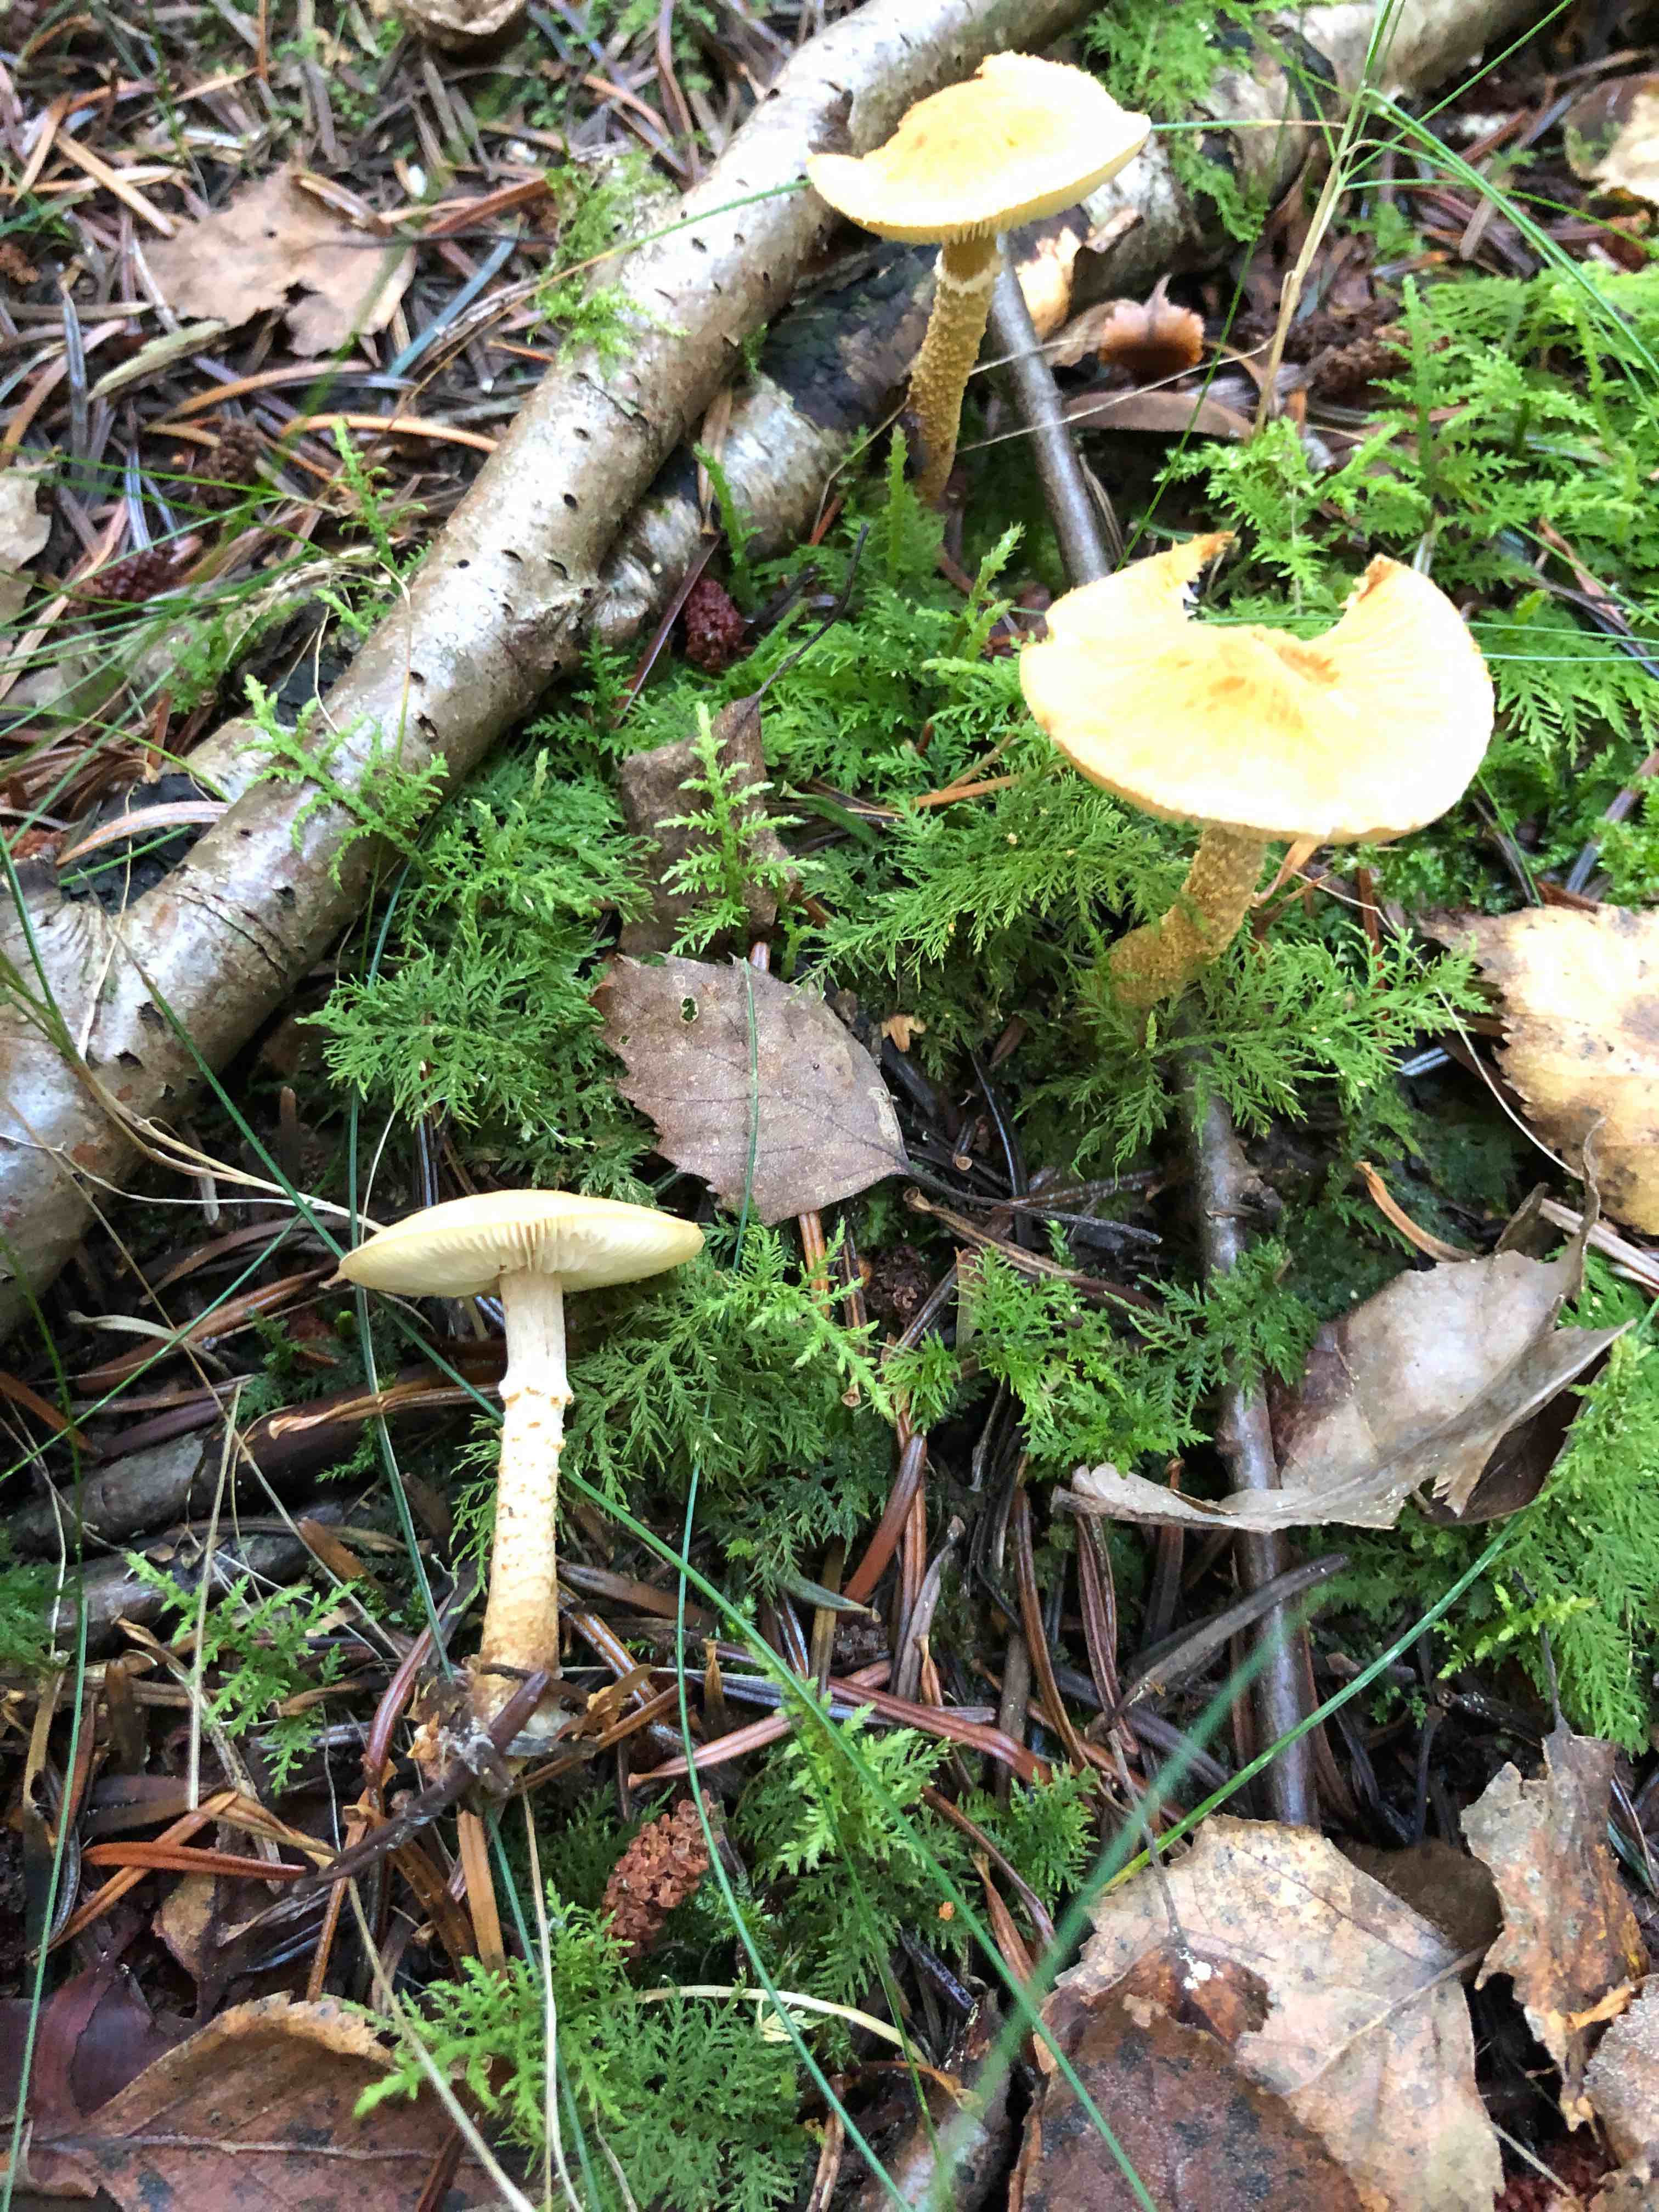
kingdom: Fungi
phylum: Basidiomycota
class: Agaricomycetes
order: Agaricales
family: Tricholomataceae
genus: Cystoderma
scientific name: Cystoderma
